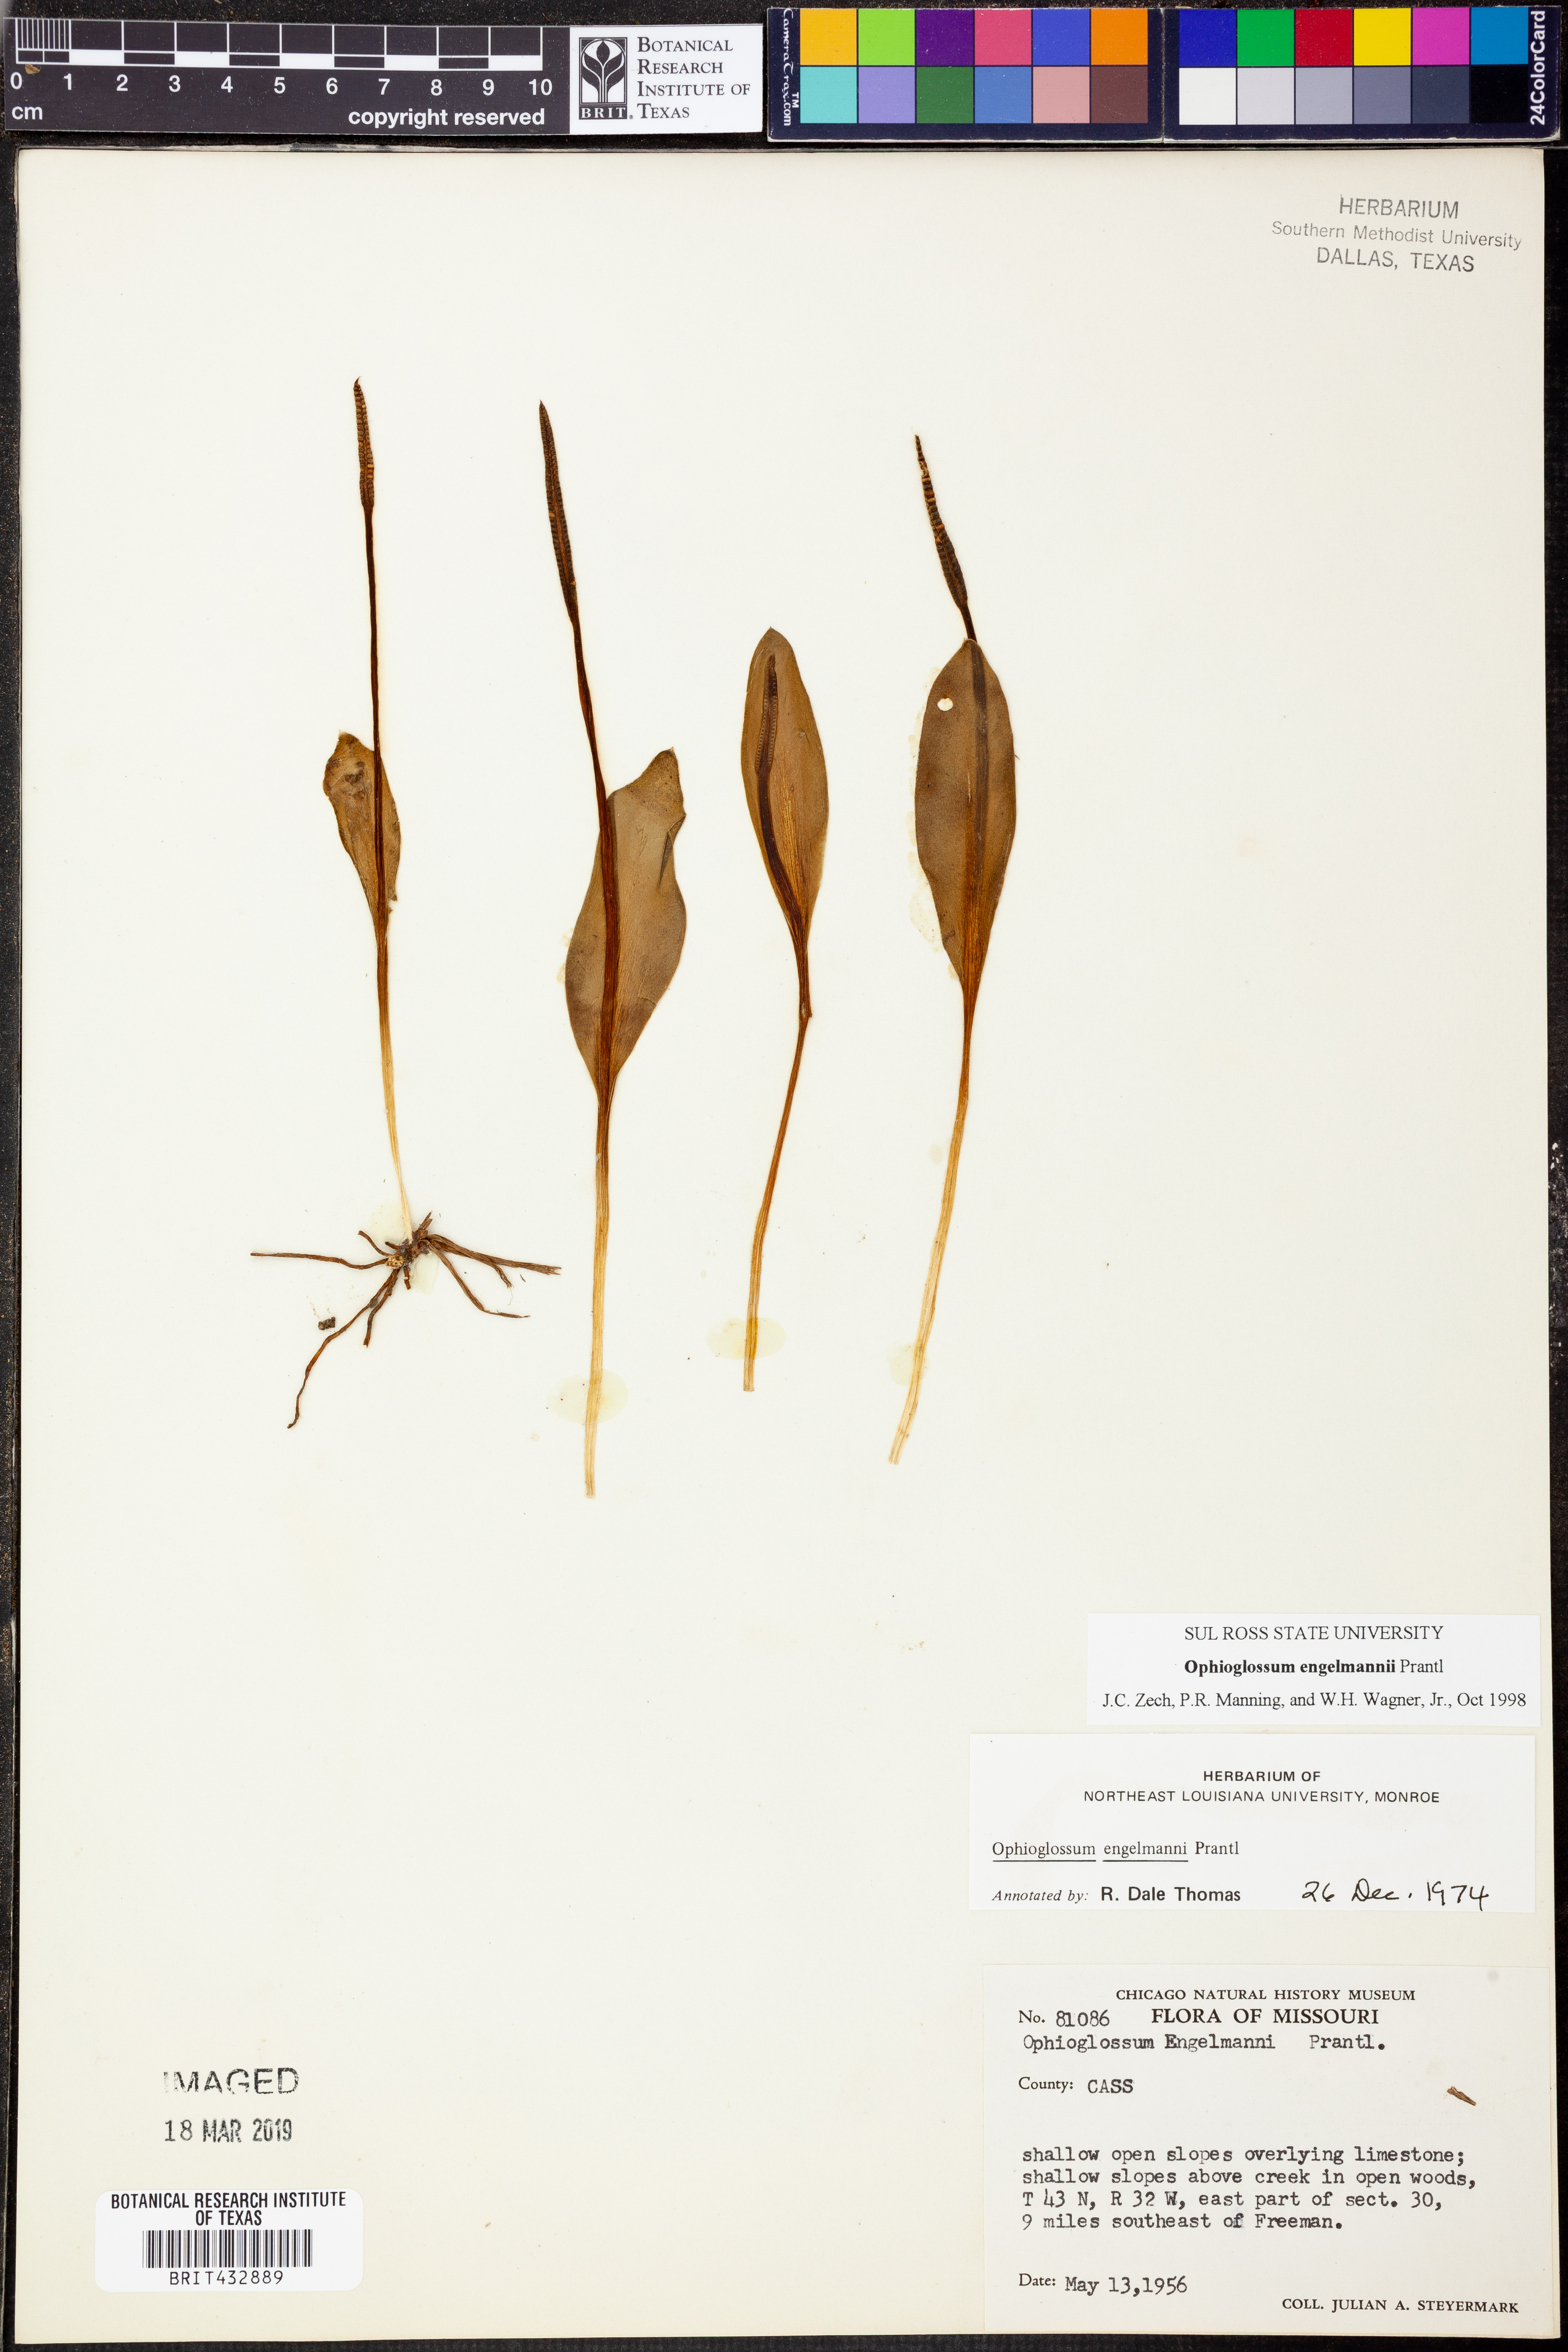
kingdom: Plantae
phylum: Tracheophyta
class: Polypodiopsida
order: Ophioglossales
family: Ophioglossaceae
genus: Ophioglossum
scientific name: Ophioglossum engelmannii
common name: Limestone adder's-tongue
